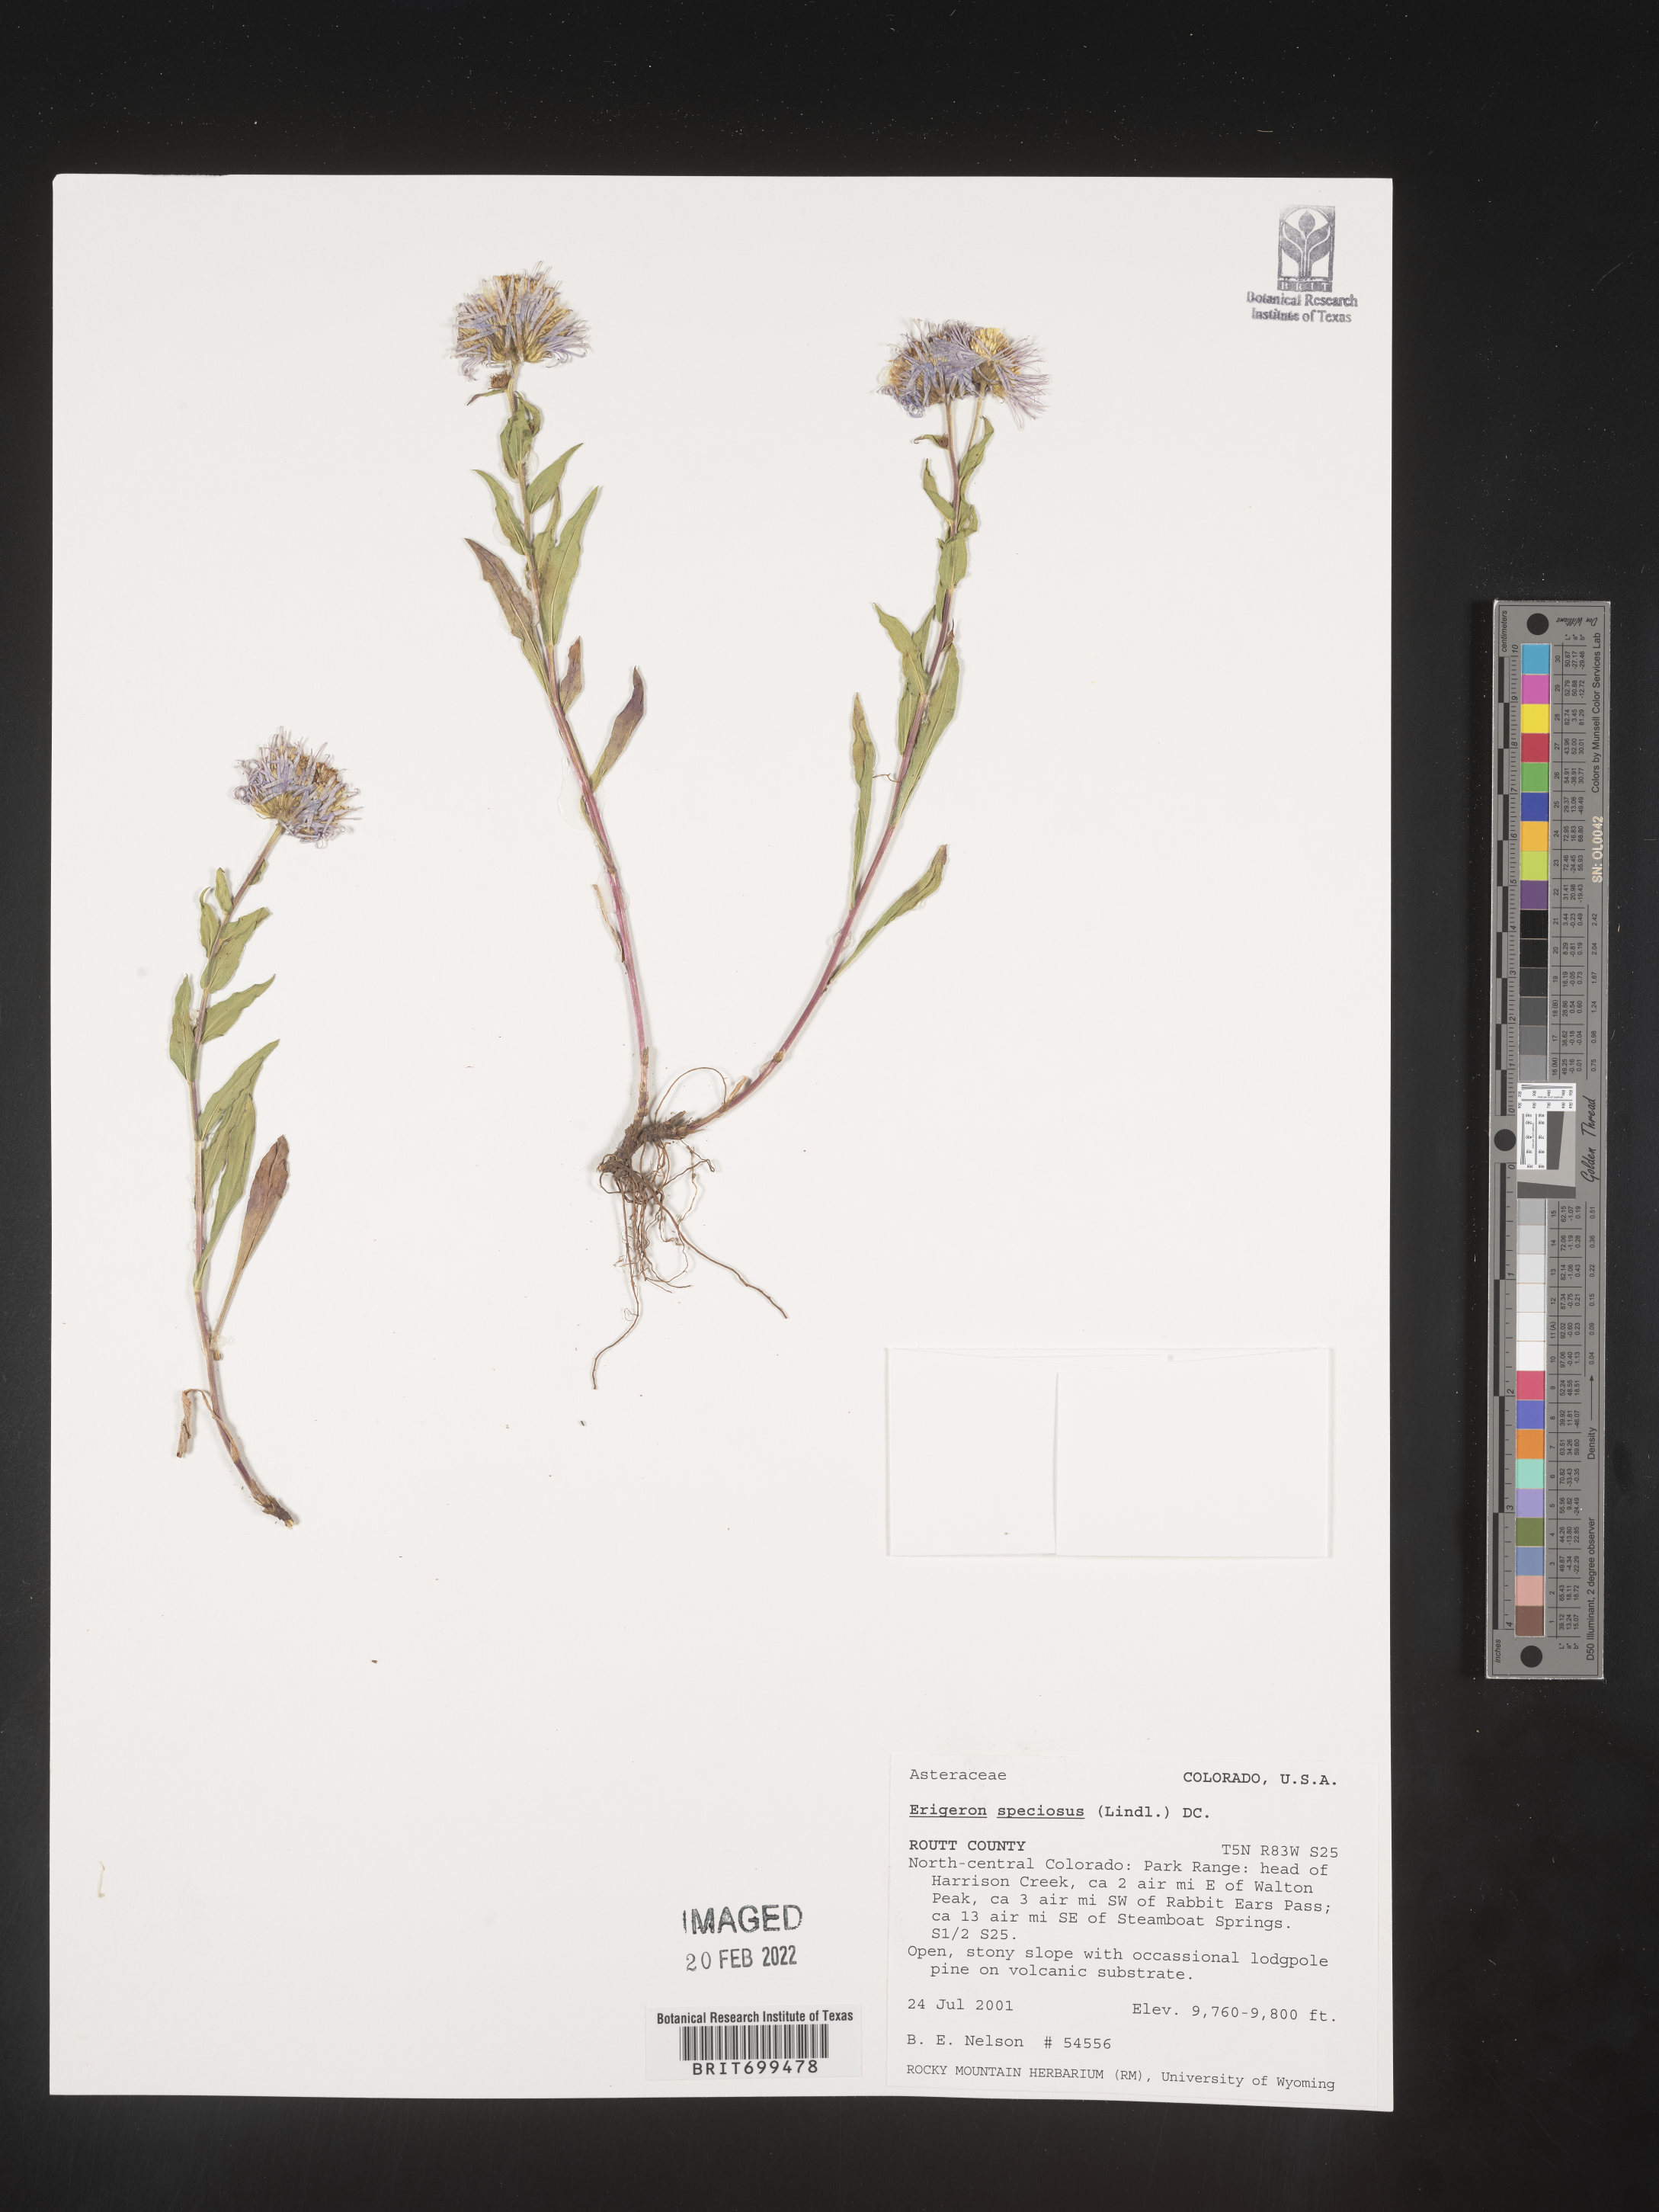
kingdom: Plantae
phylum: Tracheophyta
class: Magnoliopsida
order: Asterales
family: Asteraceae
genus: Erigeron
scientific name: Erigeron speciosus
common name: Aspen fleabane
